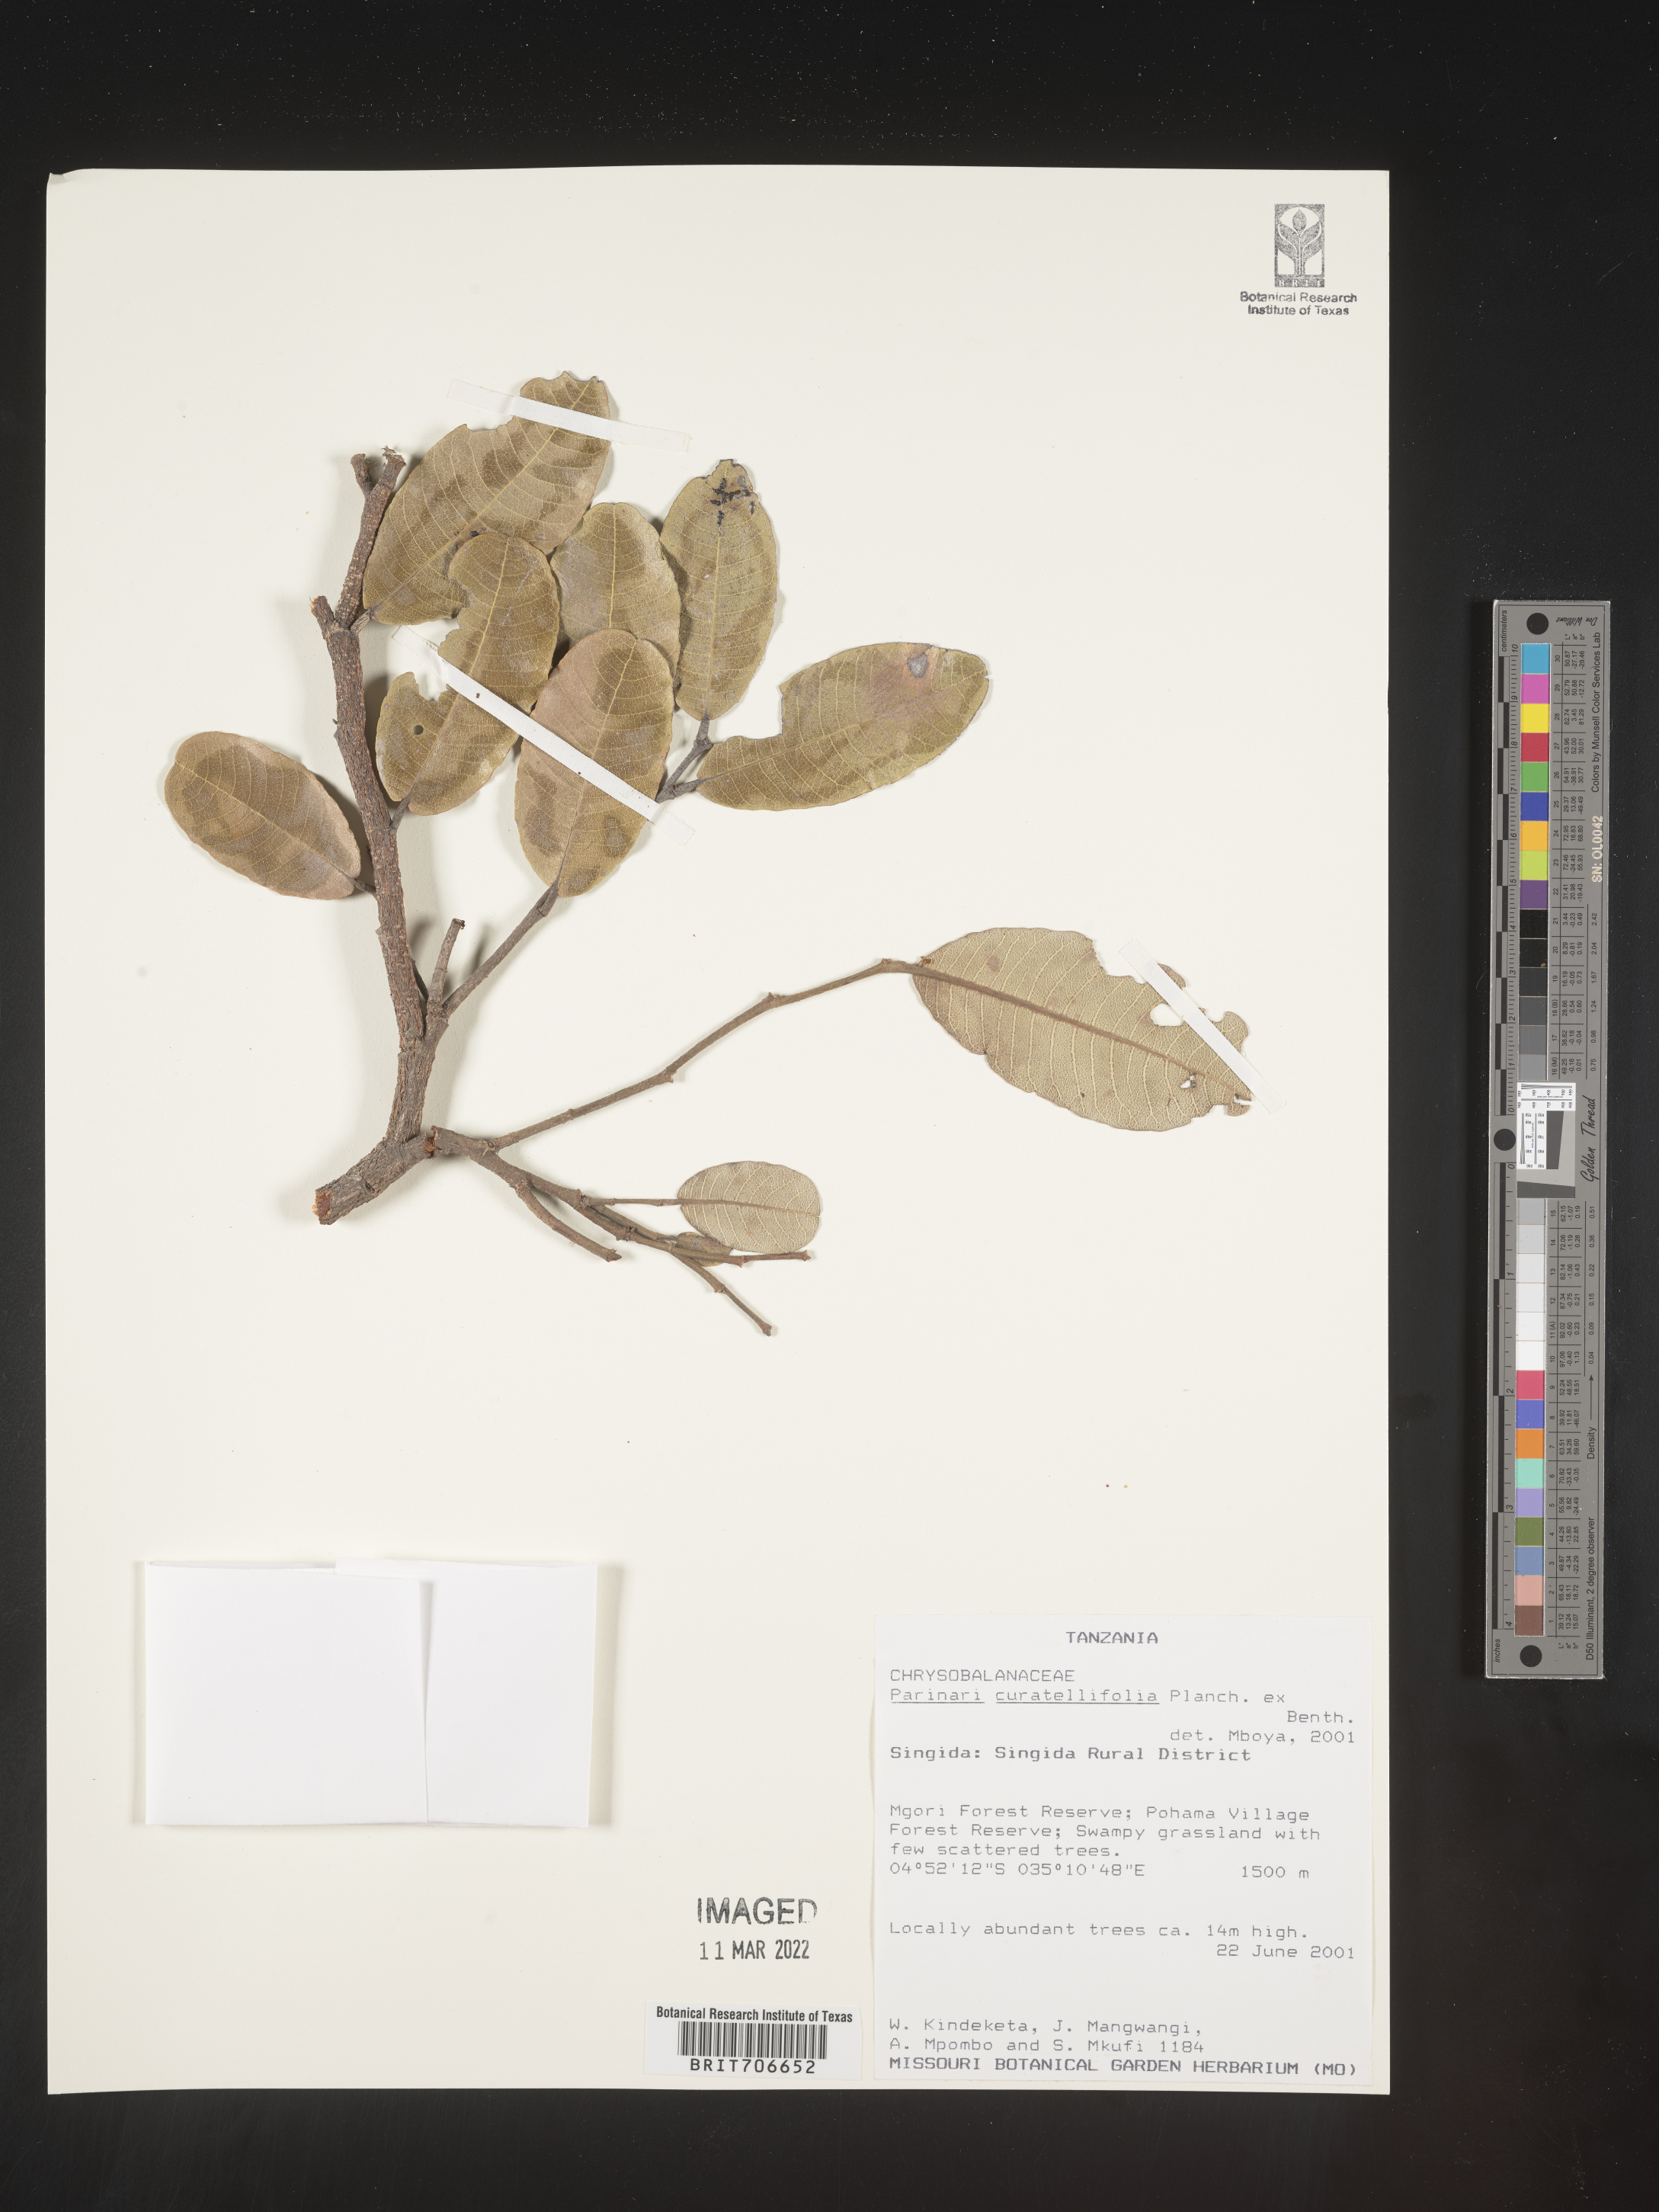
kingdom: Plantae
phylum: Tracheophyta
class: Magnoliopsida
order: Malpighiales
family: Chrysobalanaceae
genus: Parinari
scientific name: Parinari
